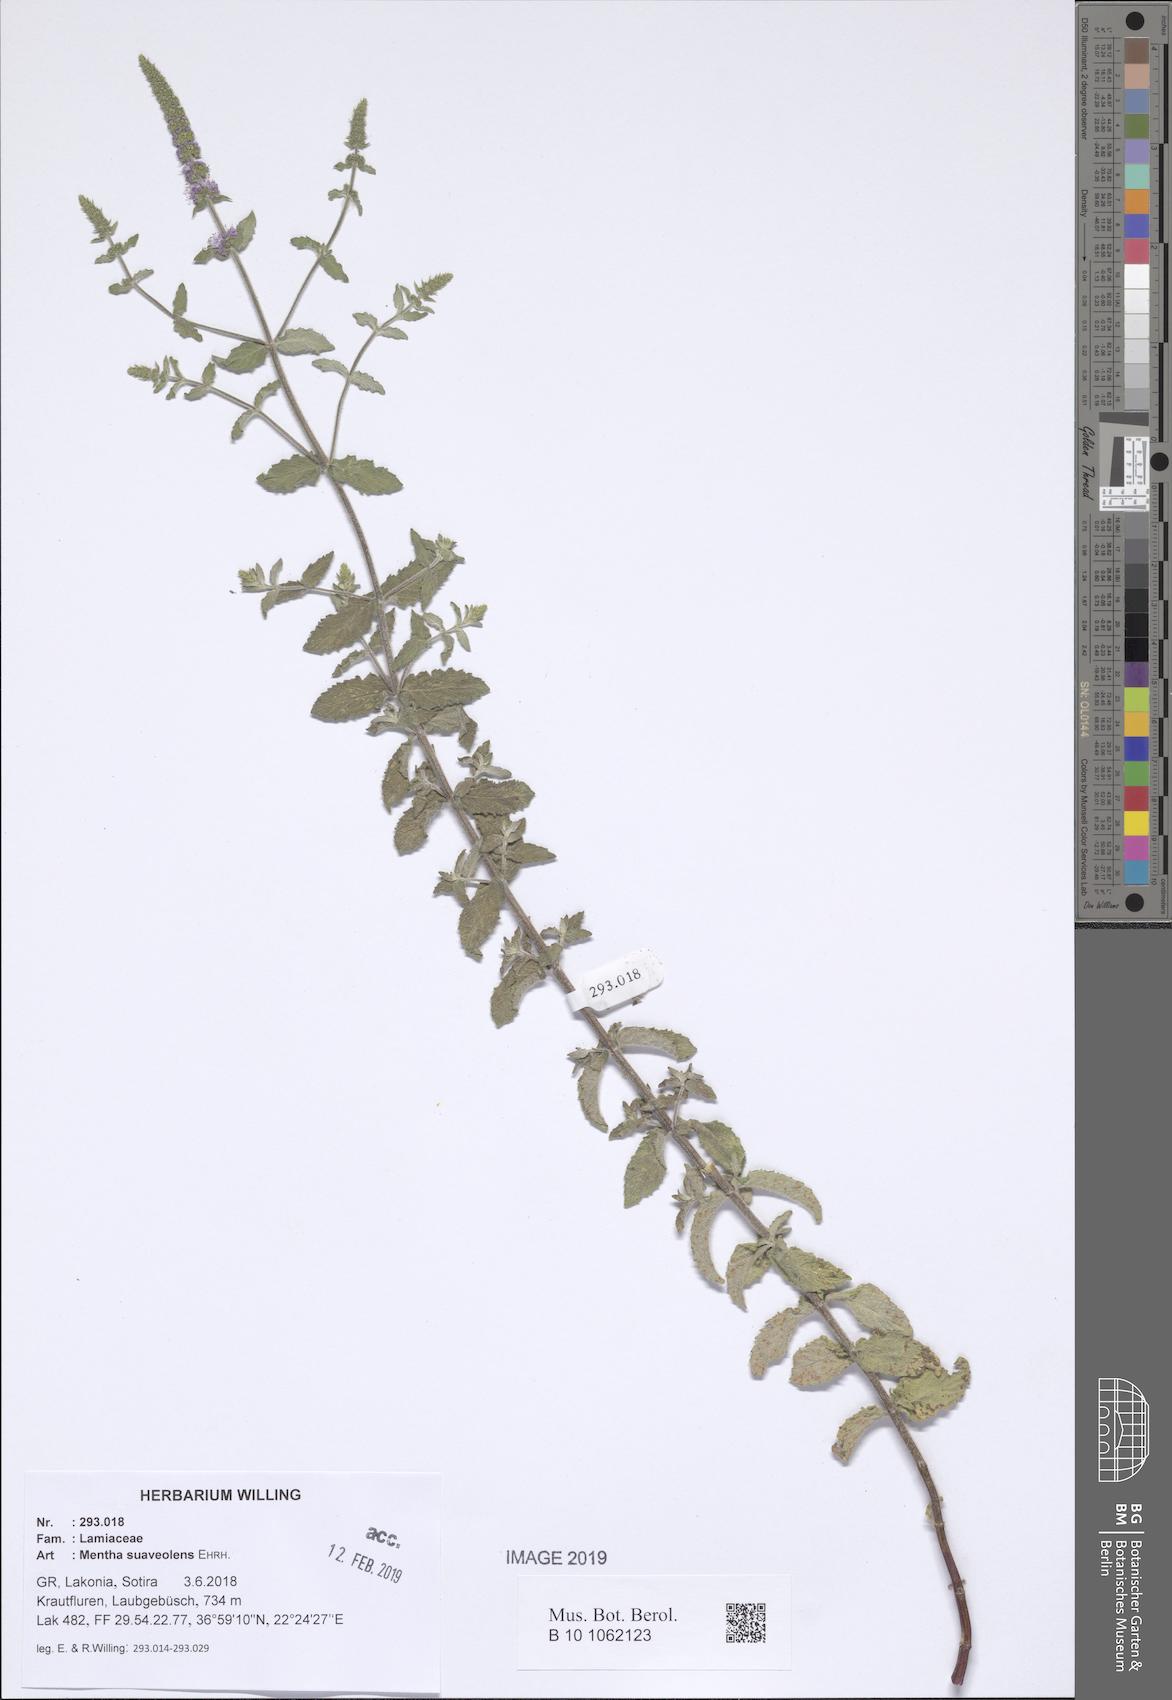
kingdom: Plantae
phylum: Tracheophyta
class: Magnoliopsida
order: Lamiales
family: Lamiaceae
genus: Mentha
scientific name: Mentha suaveolens
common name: Apple mint
